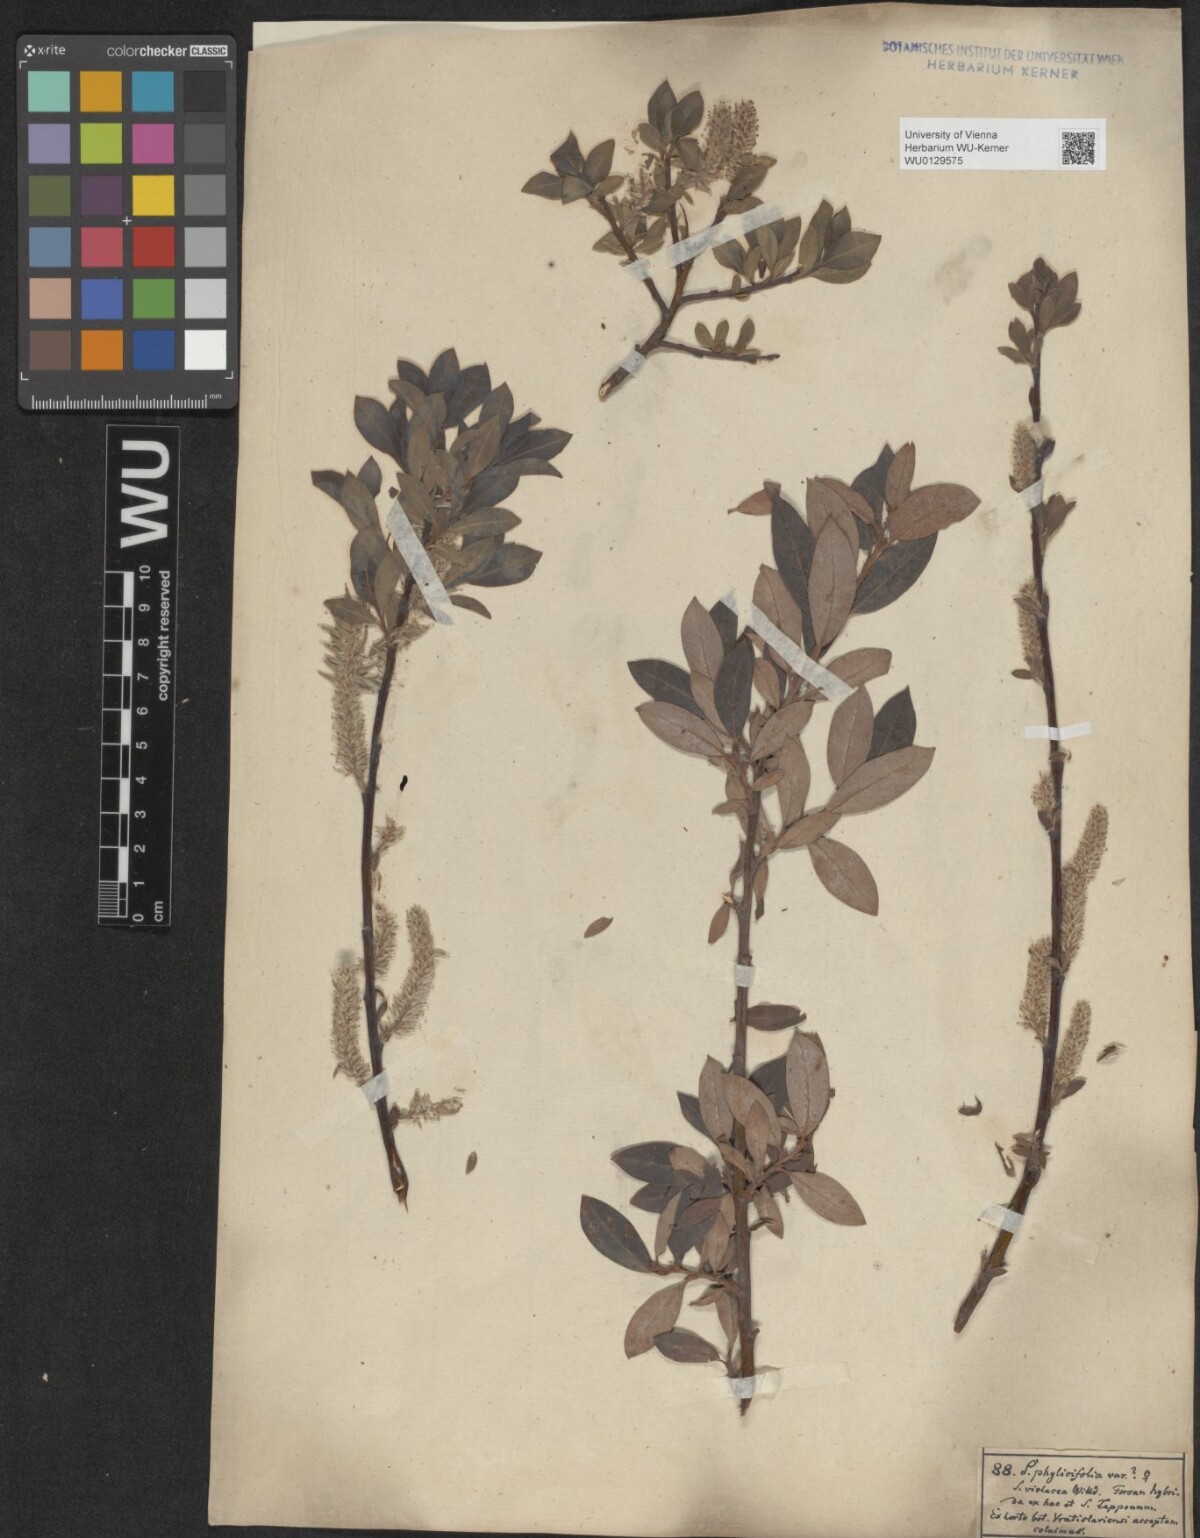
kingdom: Plantae
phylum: Tracheophyta
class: Magnoliopsida
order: Malpighiales
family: Salicaceae
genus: Salix
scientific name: Salix bicolor
